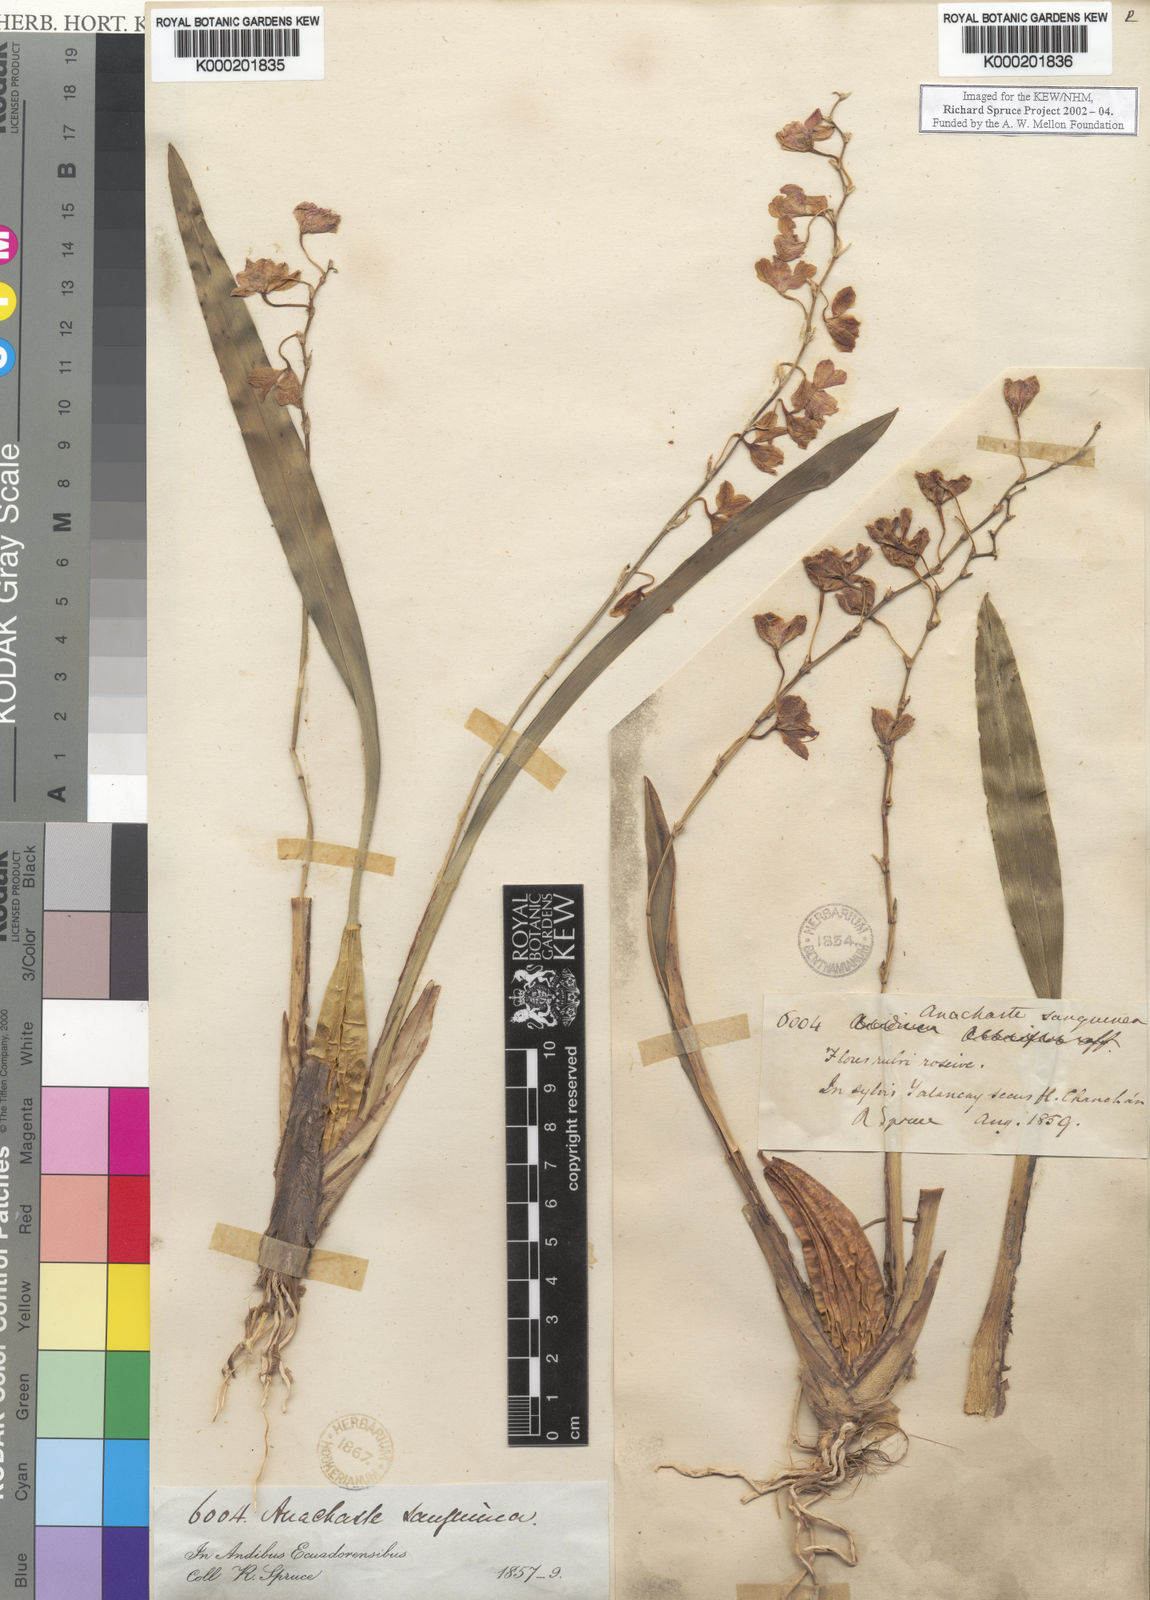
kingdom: Plantae
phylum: Tracheophyta
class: Liliopsida
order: Asparagales
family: Orchidaceae
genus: Oncidium
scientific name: Oncidium strictum
